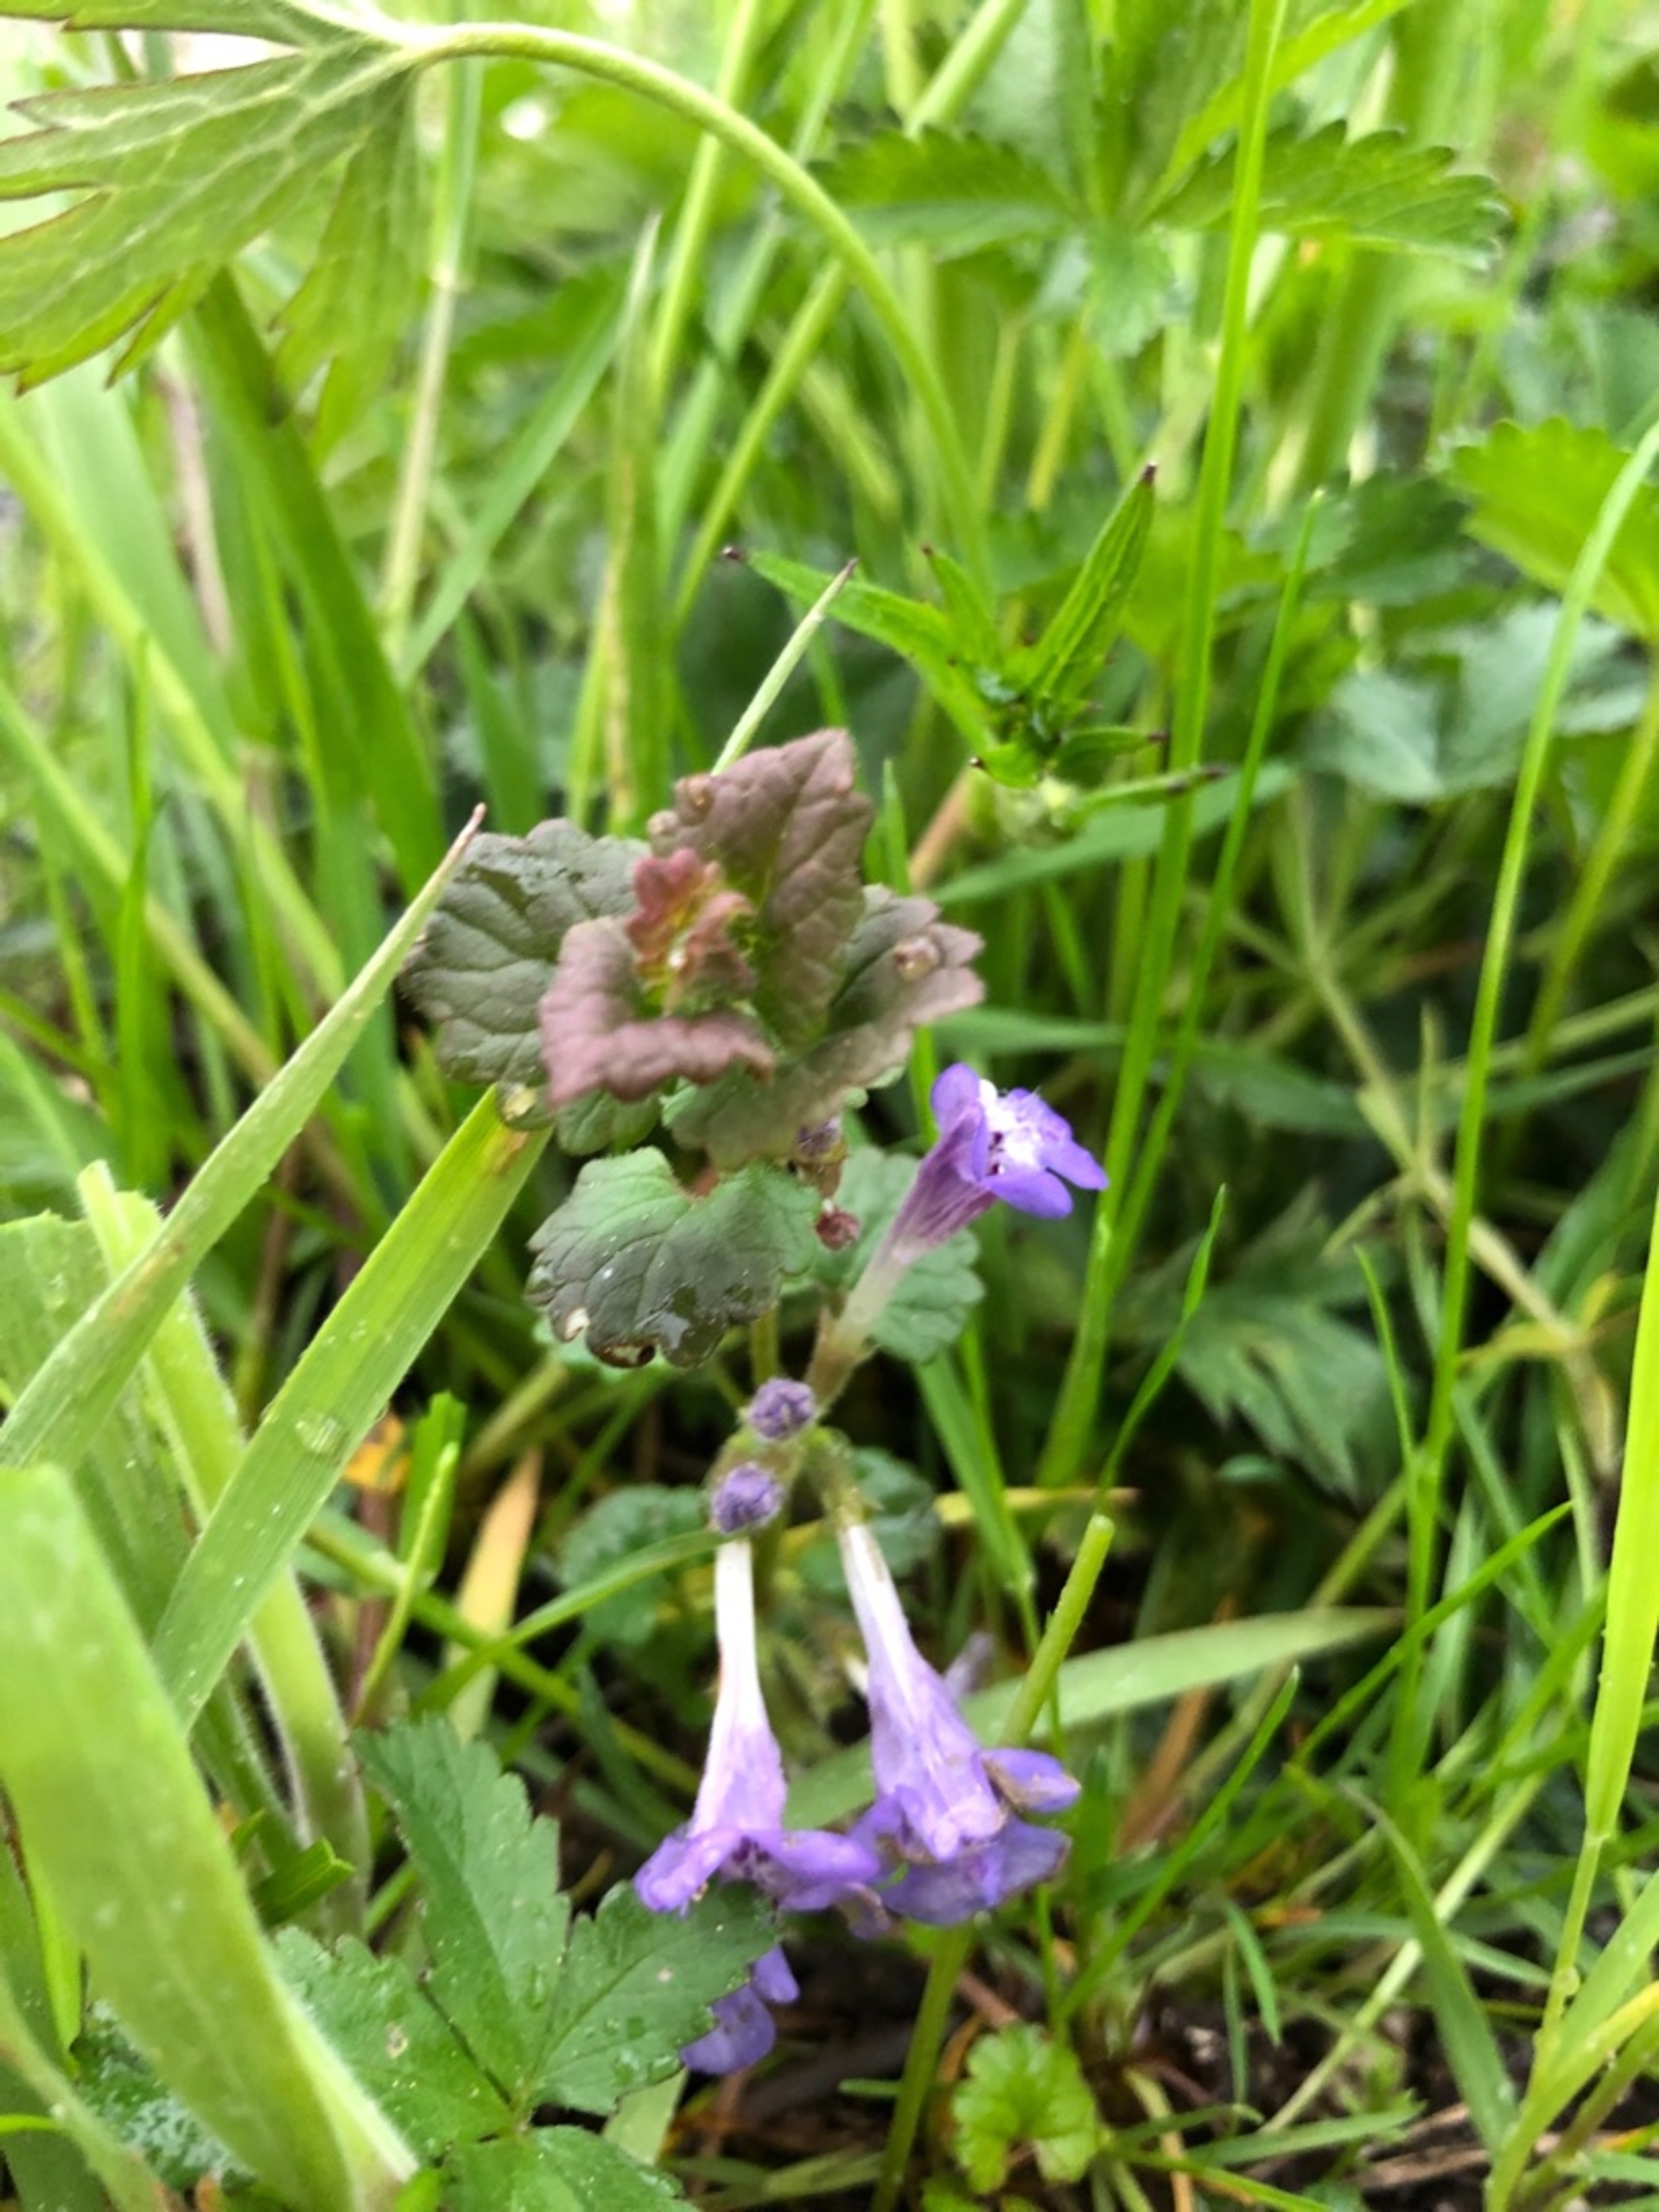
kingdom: Plantae
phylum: Tracheophyta
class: Magnoliopsida
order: Lamiales
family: Lamiaceae
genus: Glechoma
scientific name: Glechoma hederacea
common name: Korsknap
